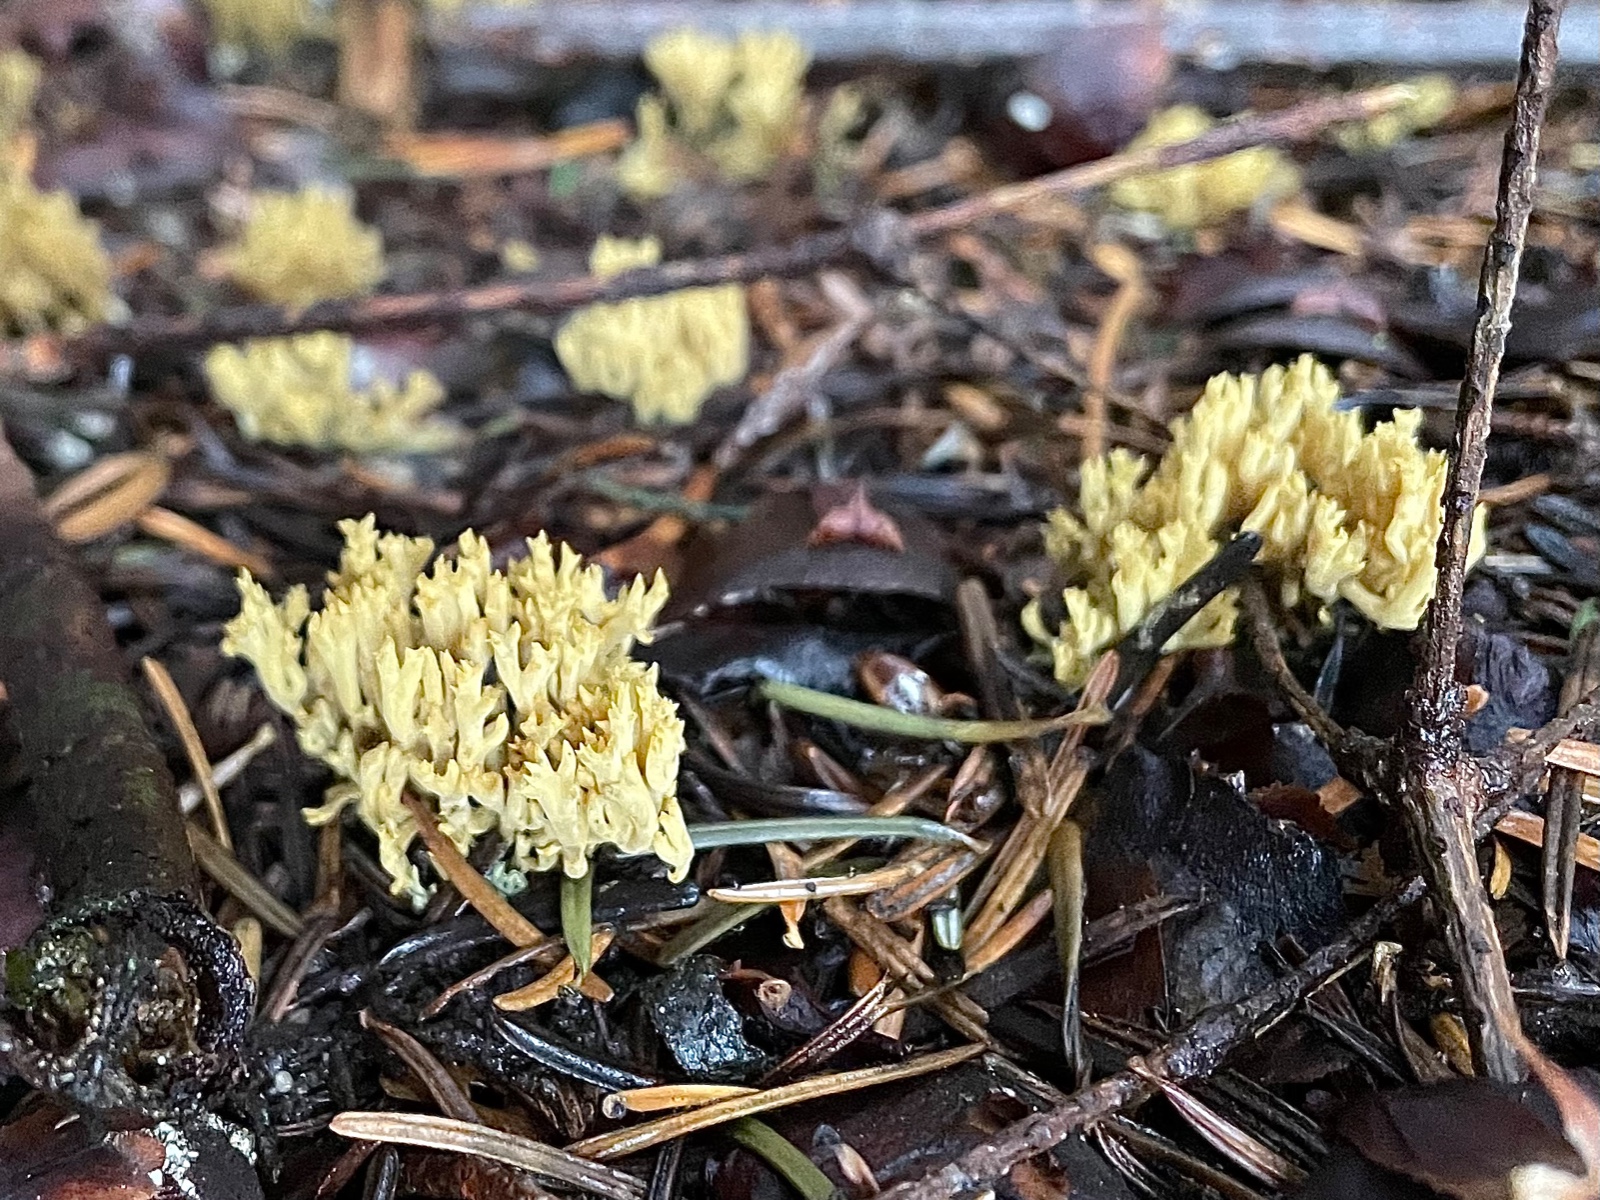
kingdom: Fungi
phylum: Basidiomycota
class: Agaricomycetes
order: Gomphales
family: Gomphaceae
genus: Phaeoclavulina
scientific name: Phaeoclavulina eumorpha
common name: gran-koralsvamp
